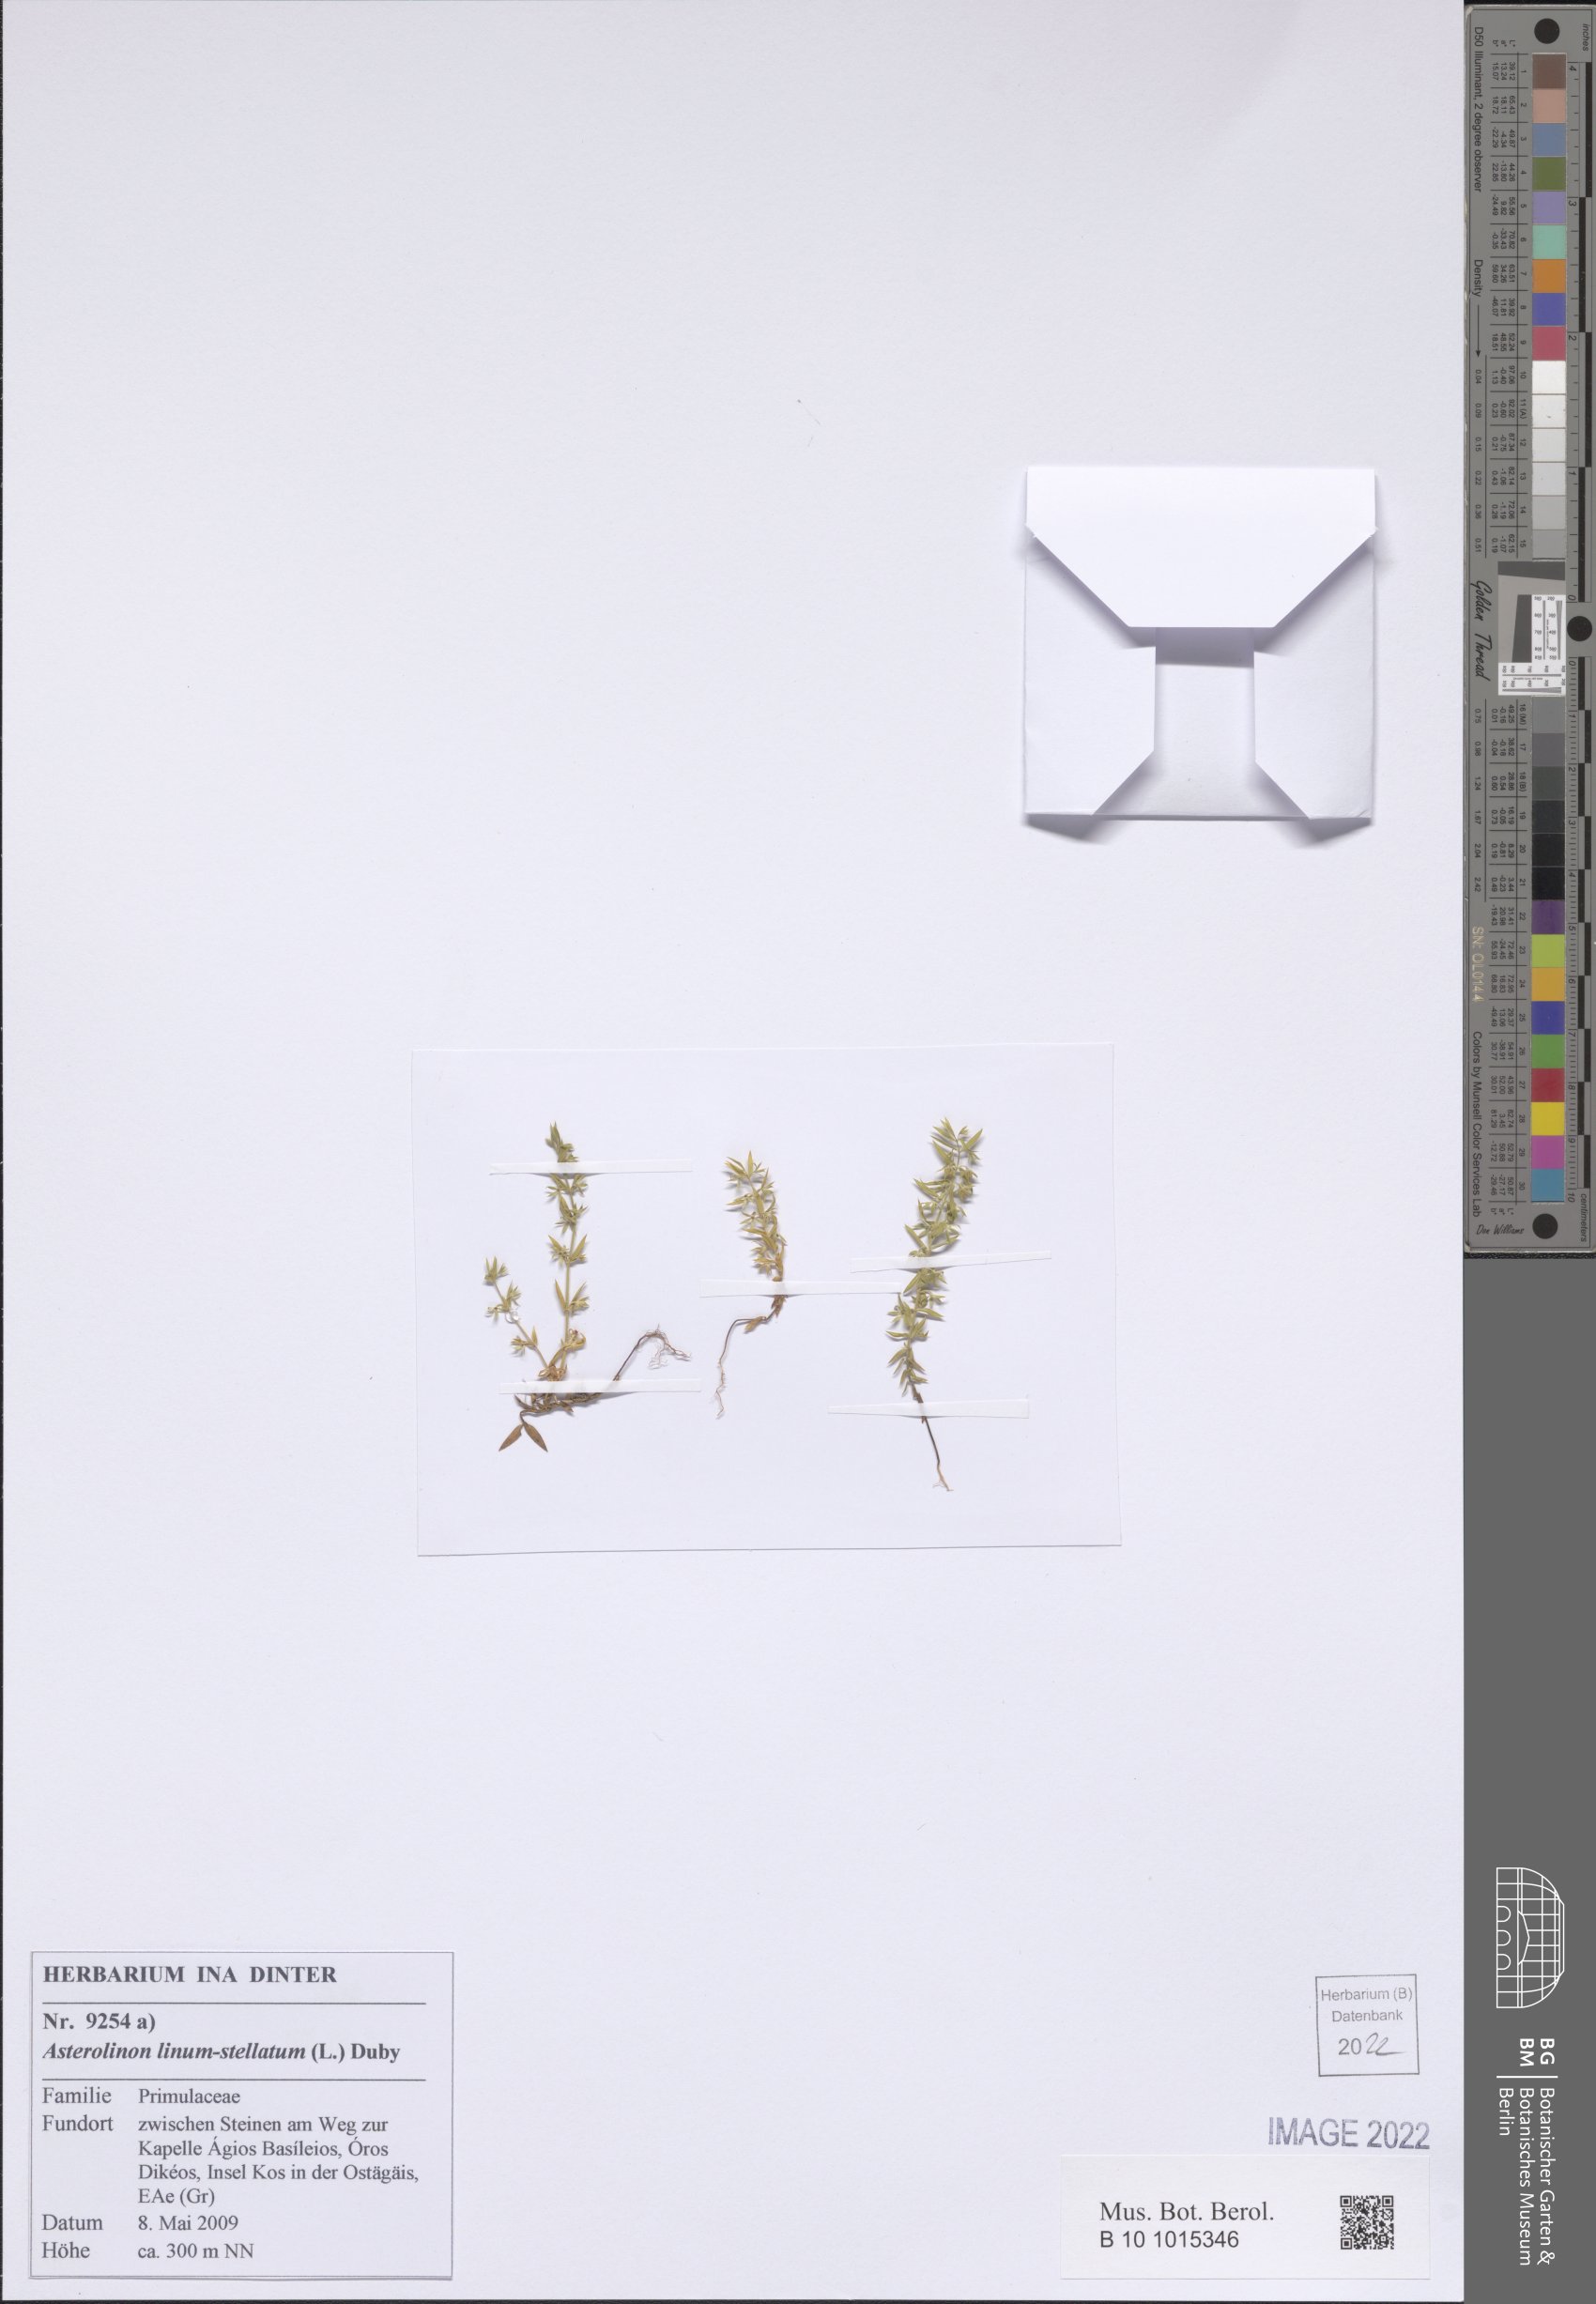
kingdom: Plantae
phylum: Tracheophyta
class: Magnoliopsida
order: Ericales
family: Primulaceae
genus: Lysimachia
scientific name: Lysimachia linum-stellatum
